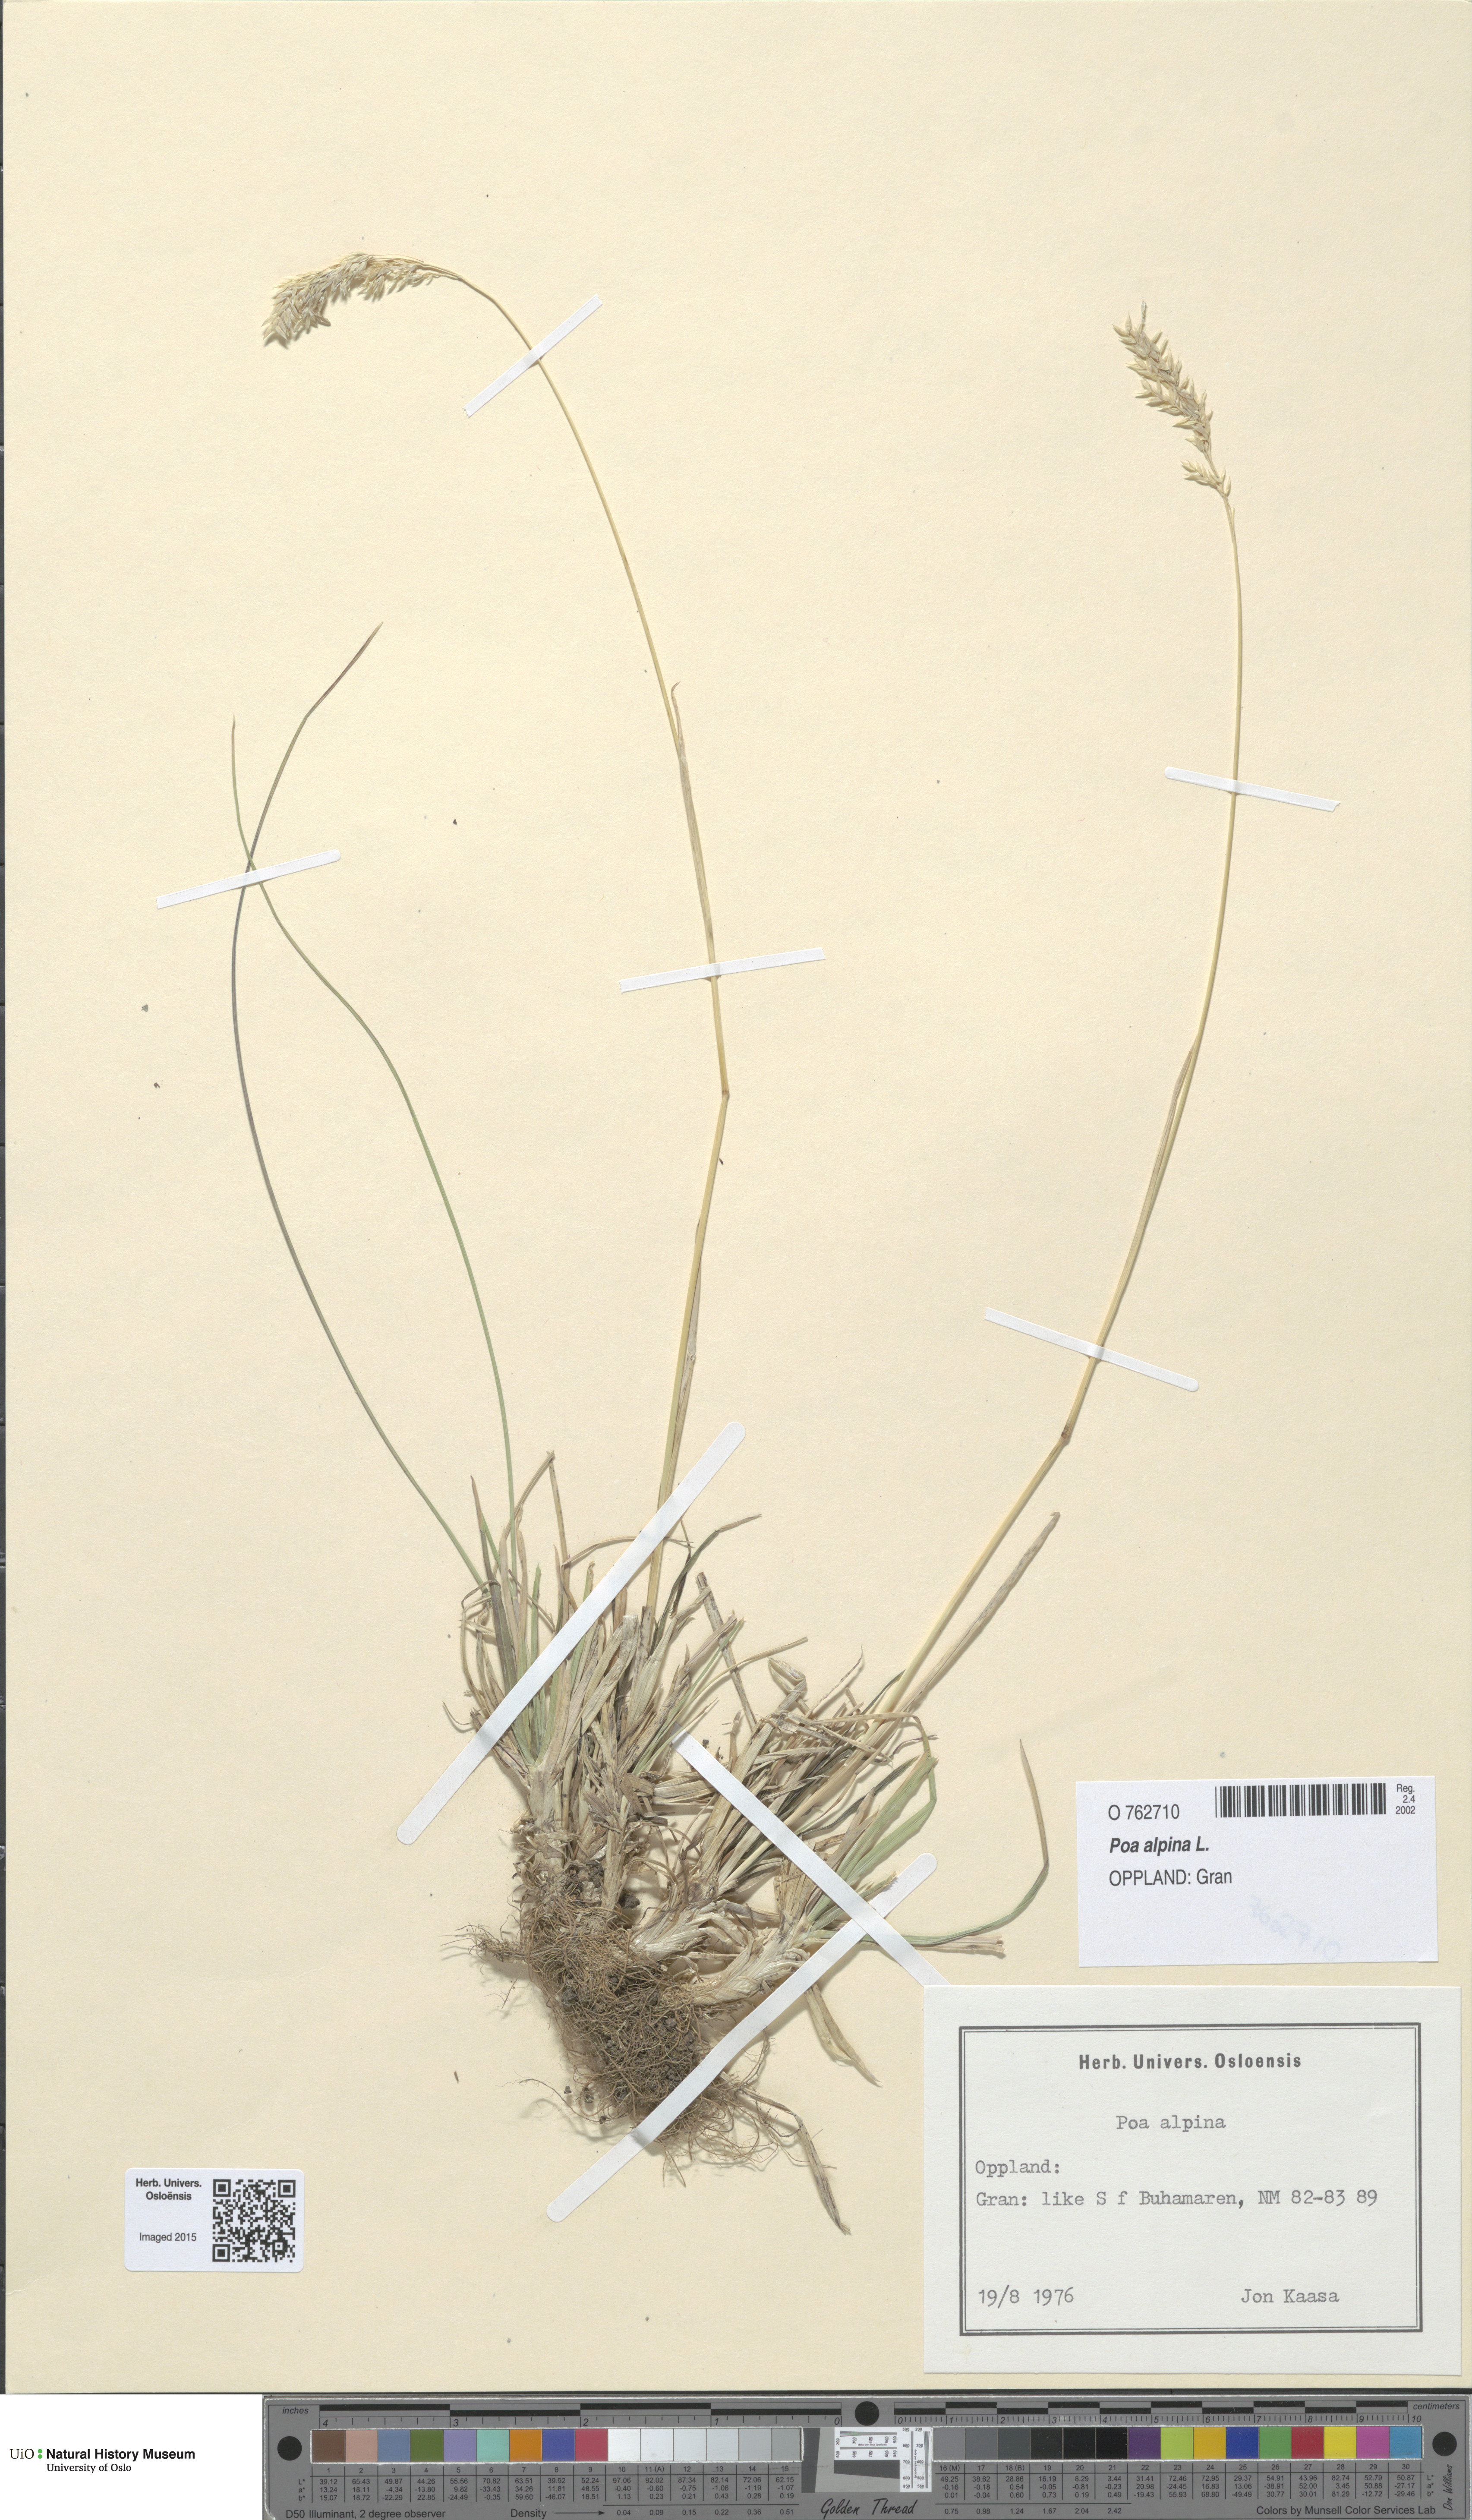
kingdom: Plantae
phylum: Tracheophyta
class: Liliopsida
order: Poales
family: Poaceae
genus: Poa
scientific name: Poa alpina
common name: Alpine bluegrass
